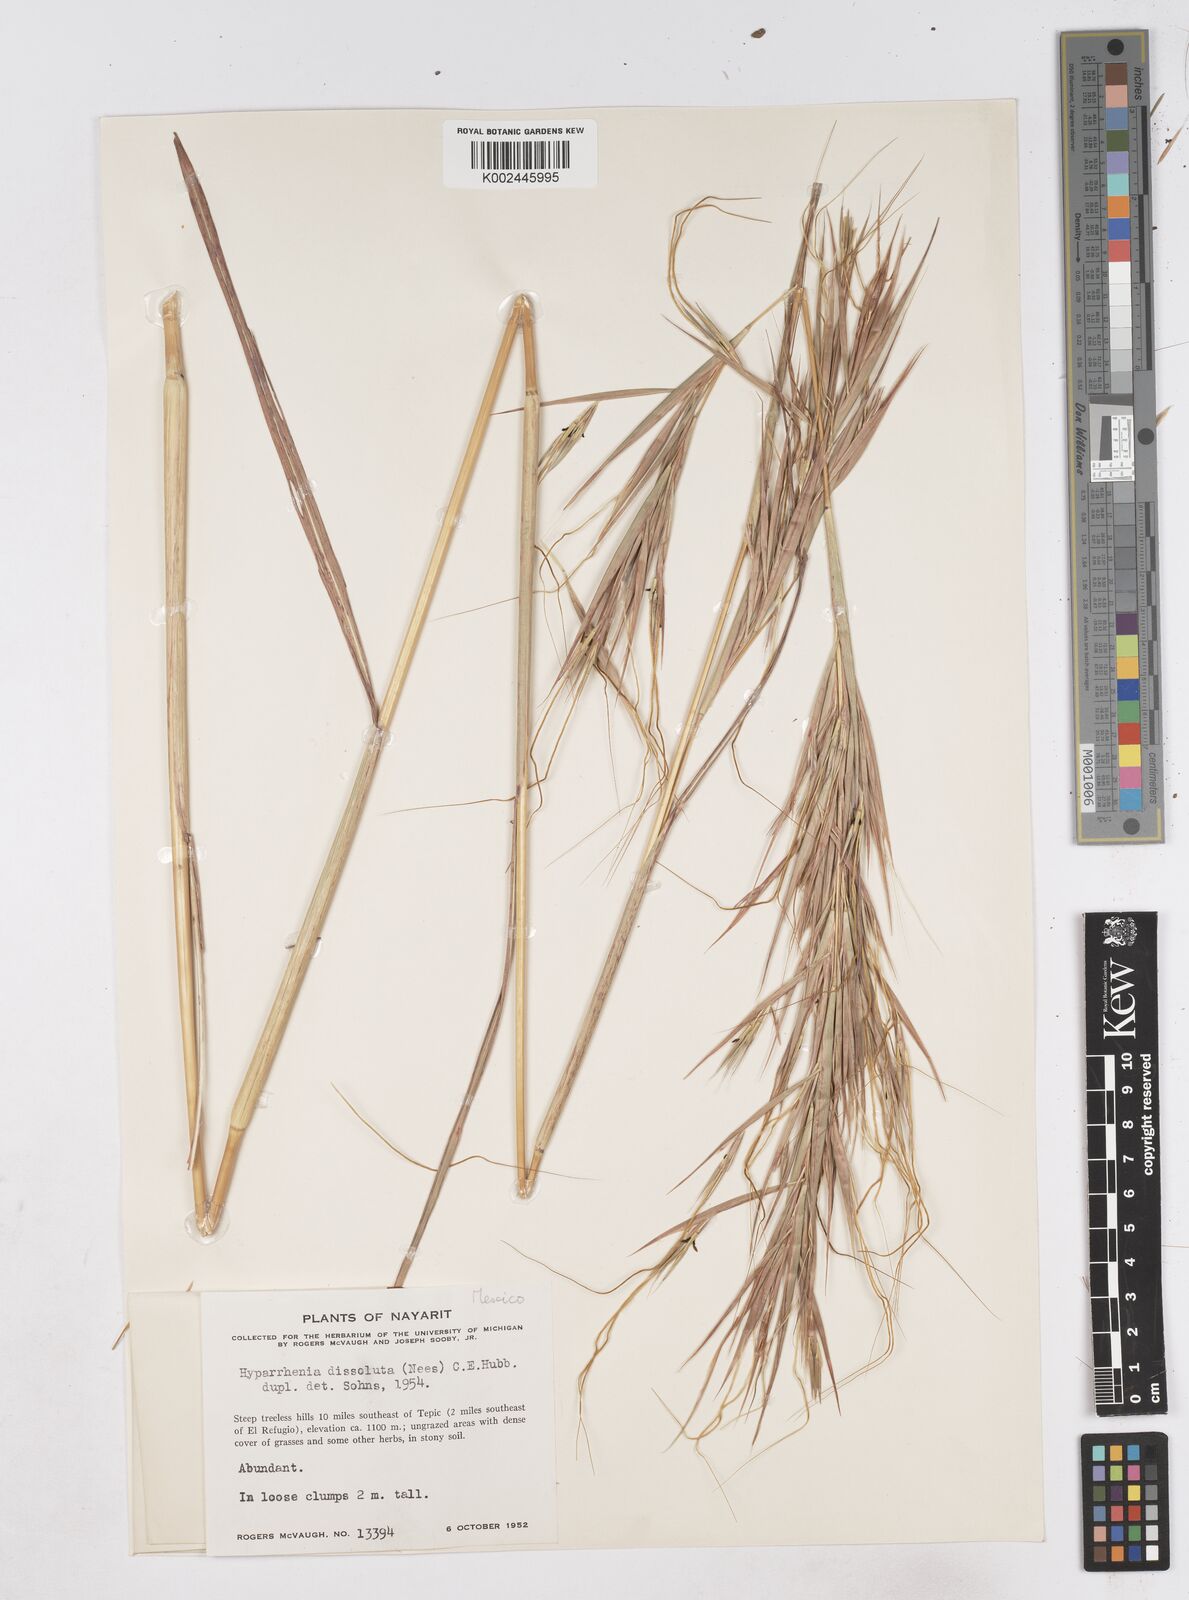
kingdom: Plantae
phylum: Tracheophyta
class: Liliopsida
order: Poales
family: Poaceae
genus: Hyperthelia
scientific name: Hyperthelia dissoluta
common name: Yellow thatching grass
